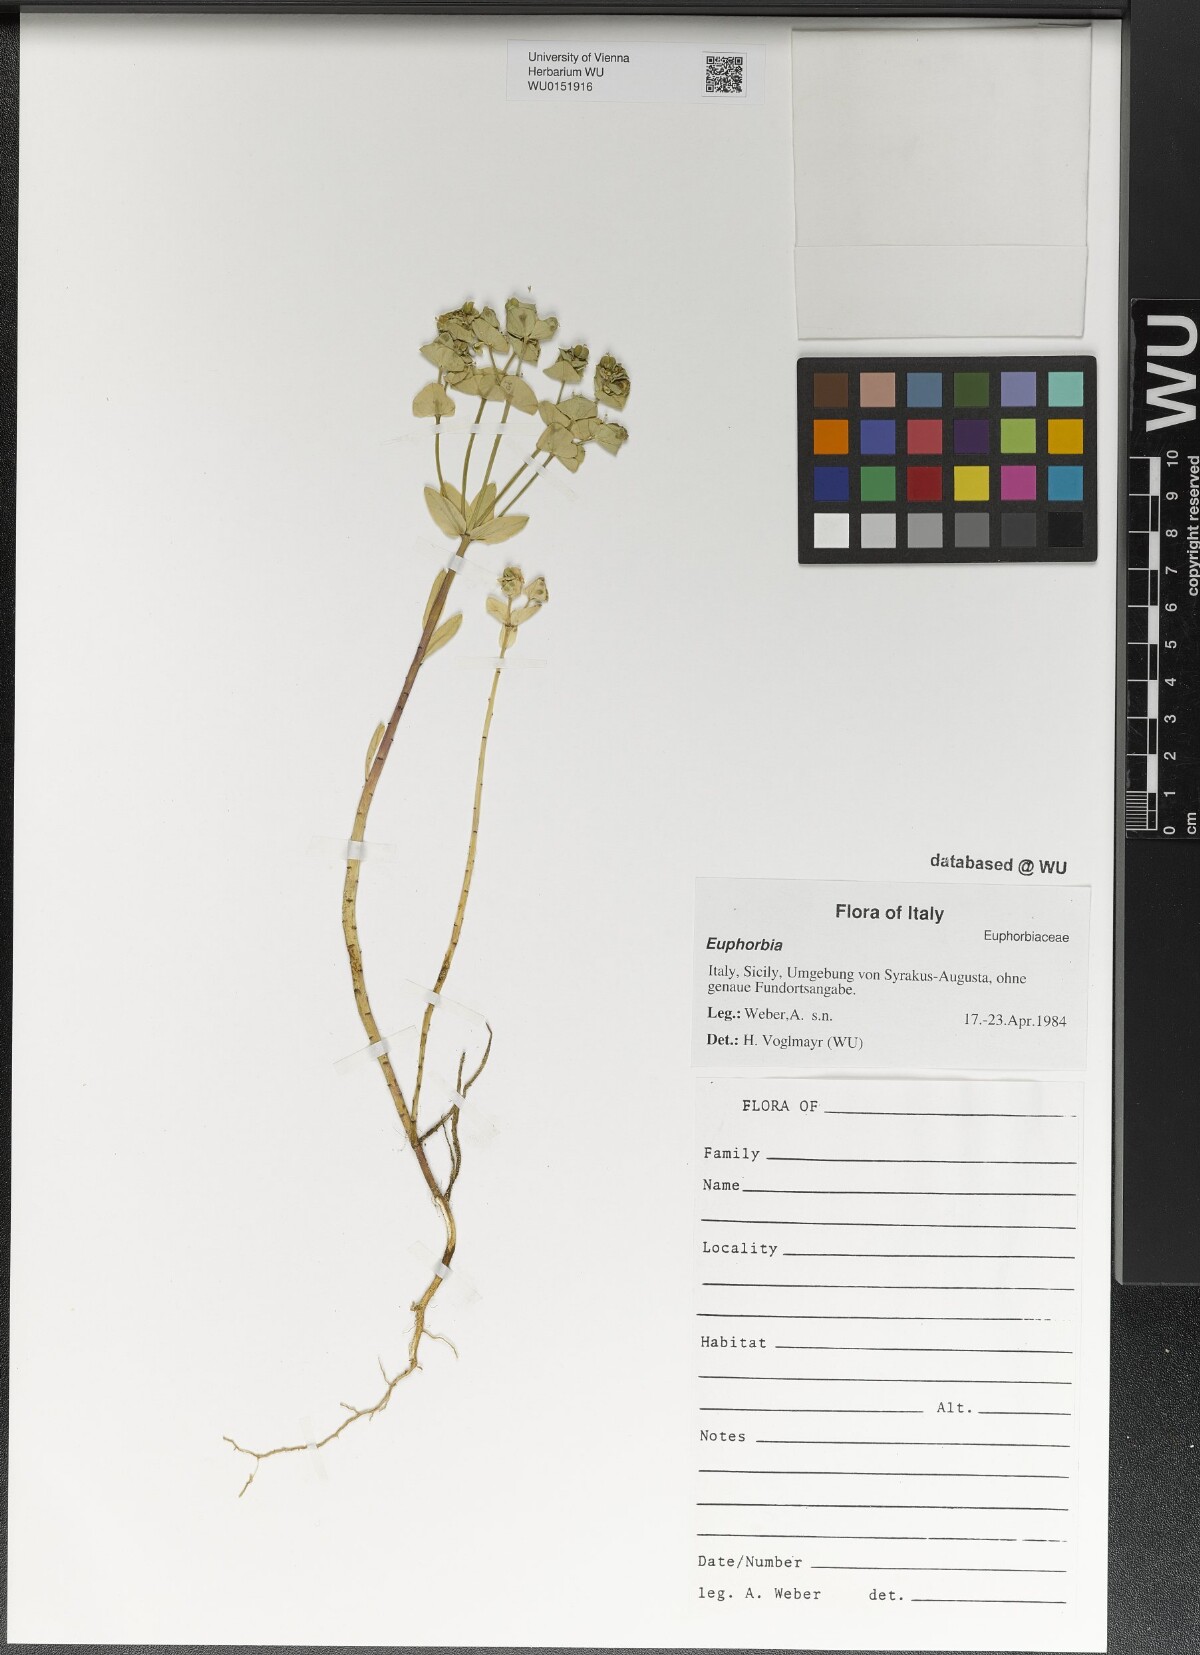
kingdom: Plantae
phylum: Tracheophyta
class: Magnoliopsida
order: Malpighiales
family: Euphorbiaceae
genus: Euphorbia
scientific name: Euphorbia
